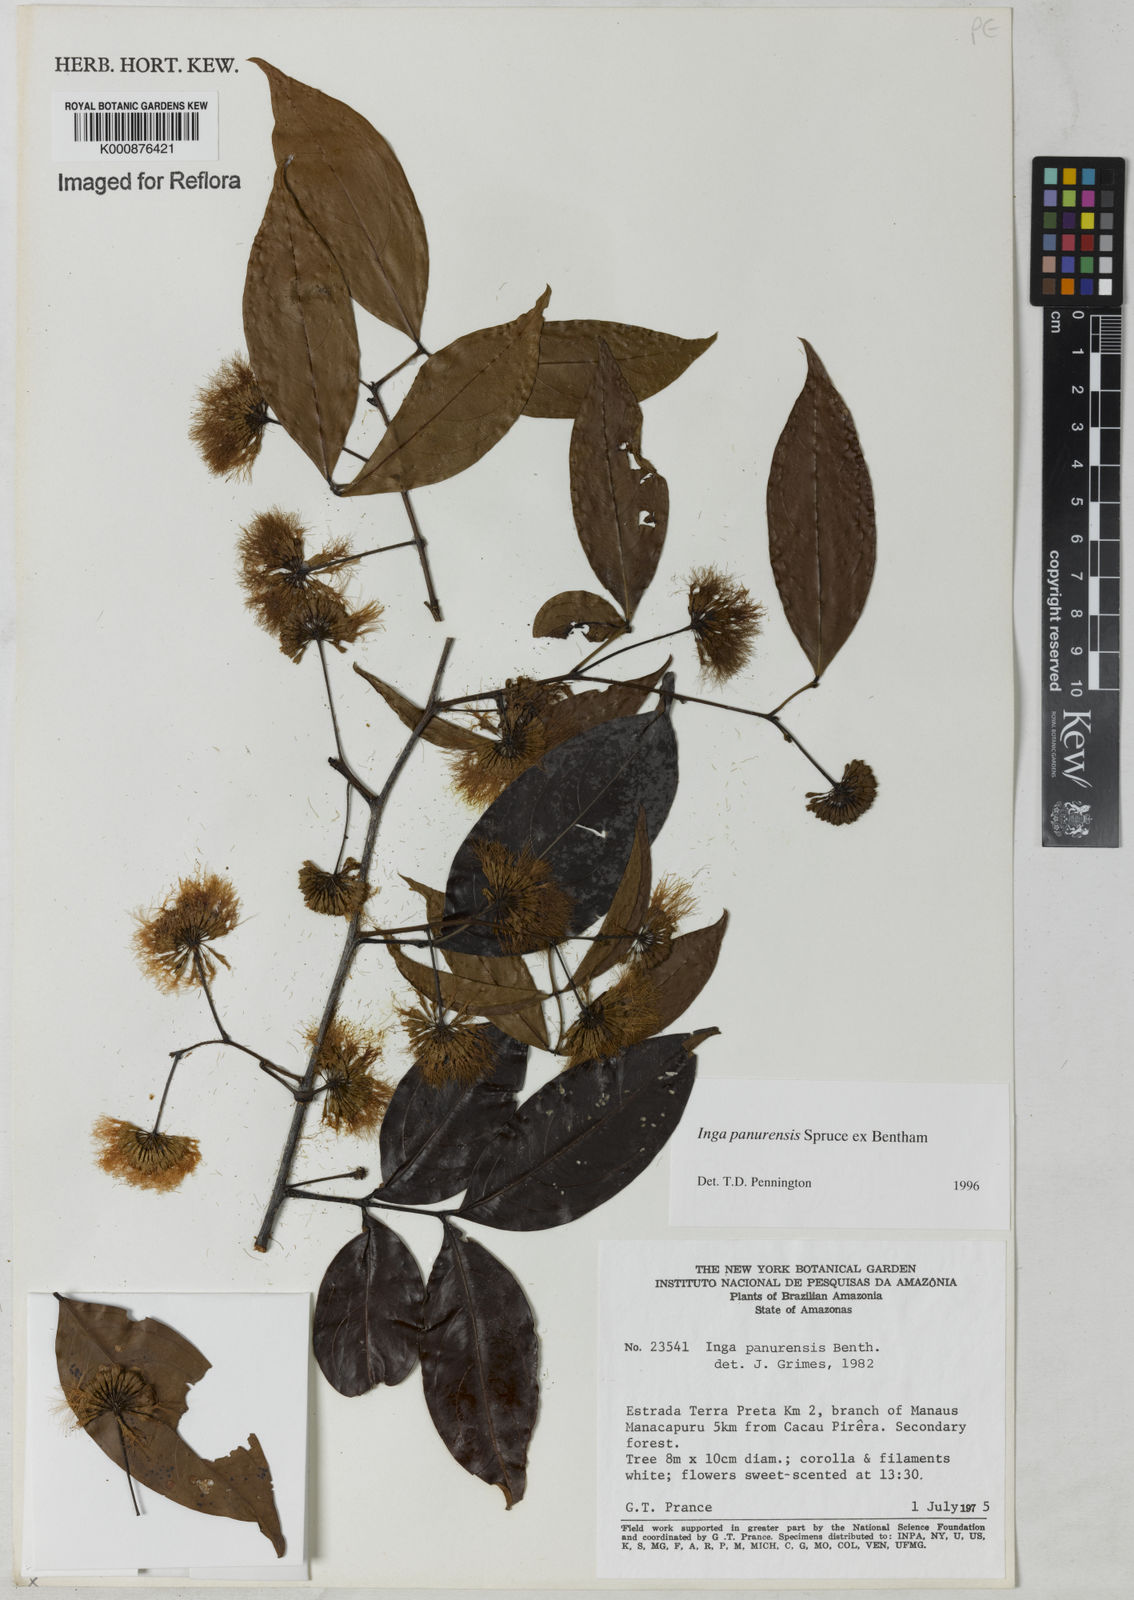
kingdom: Plantae
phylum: Tracheophyta
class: Magnoliopsida
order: Fabales
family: Fabaceae
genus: Inga
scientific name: Inga panurensis
